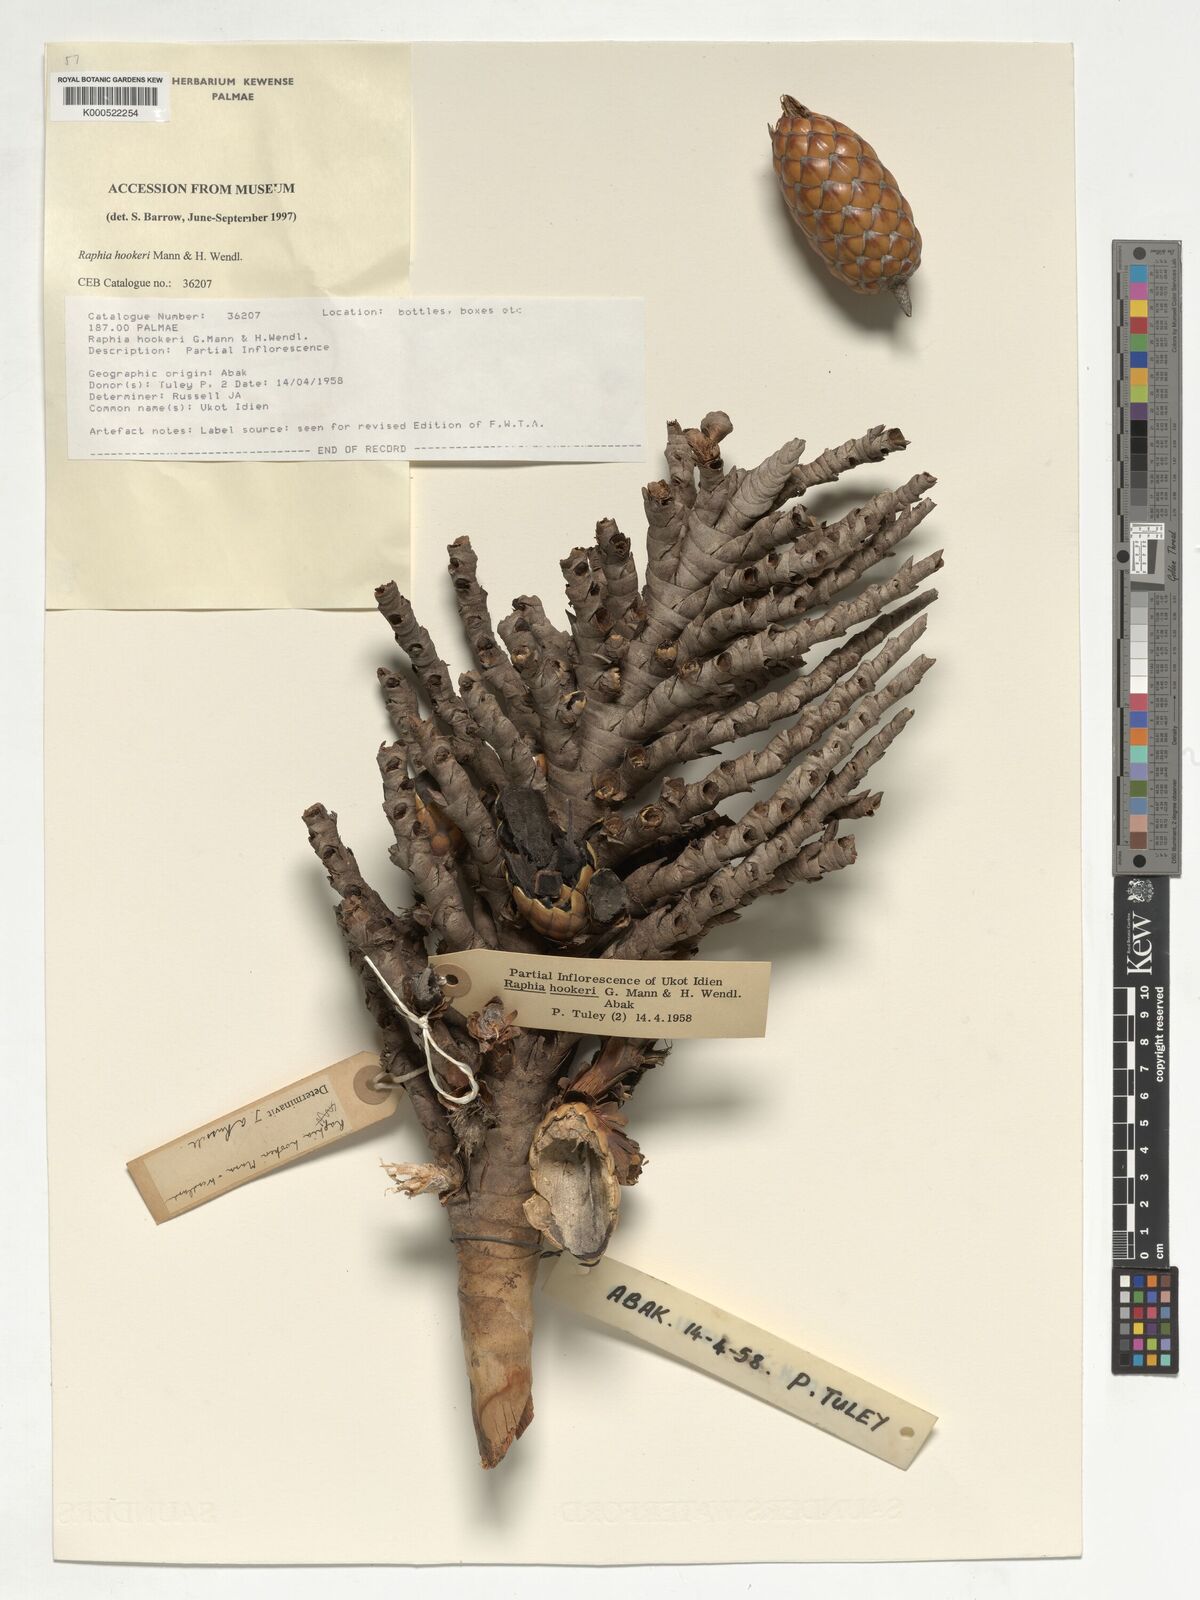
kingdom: Plantae
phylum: Tracheophyta
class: Liliopsida
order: Arecales
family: Arecaceae
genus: Raphia
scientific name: Raphia hookeri
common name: Wine palm
